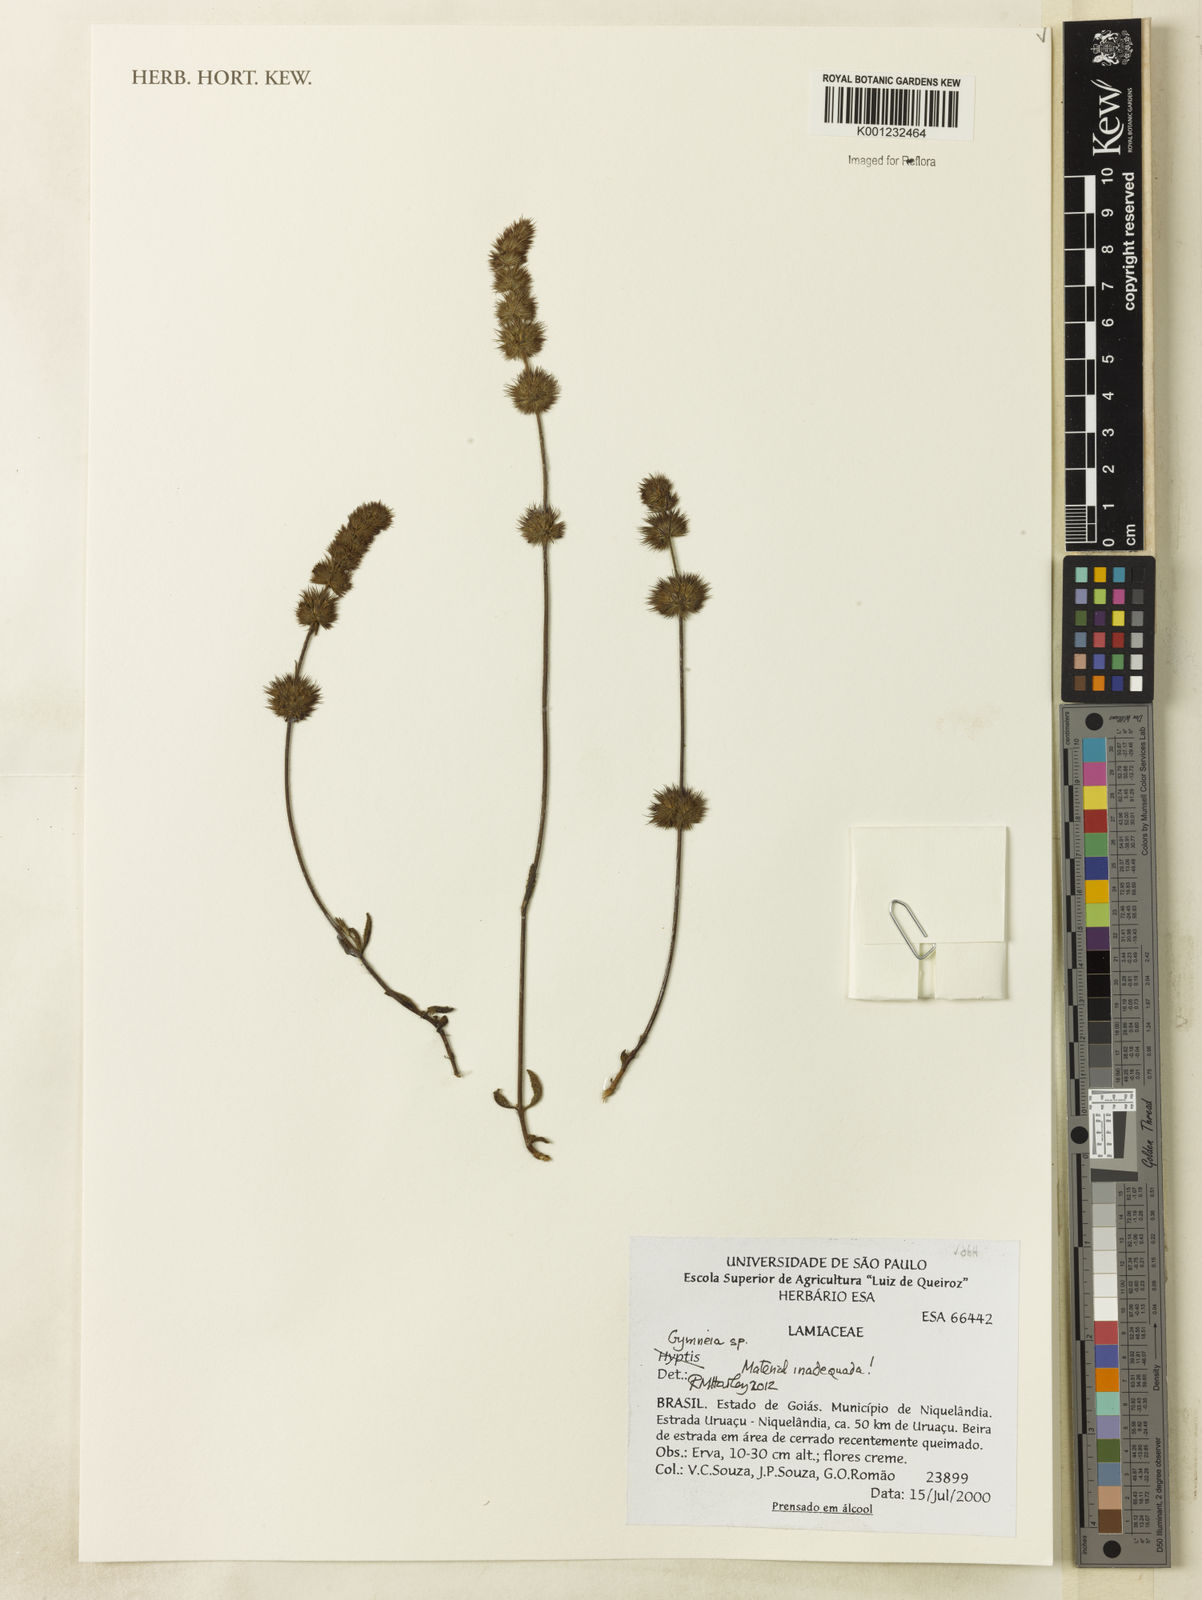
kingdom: Plantae
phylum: Tracheophyta
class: Magnoliopsida
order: Lamiales
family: Lamiaceae
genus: Gymneia
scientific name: Gymneia
